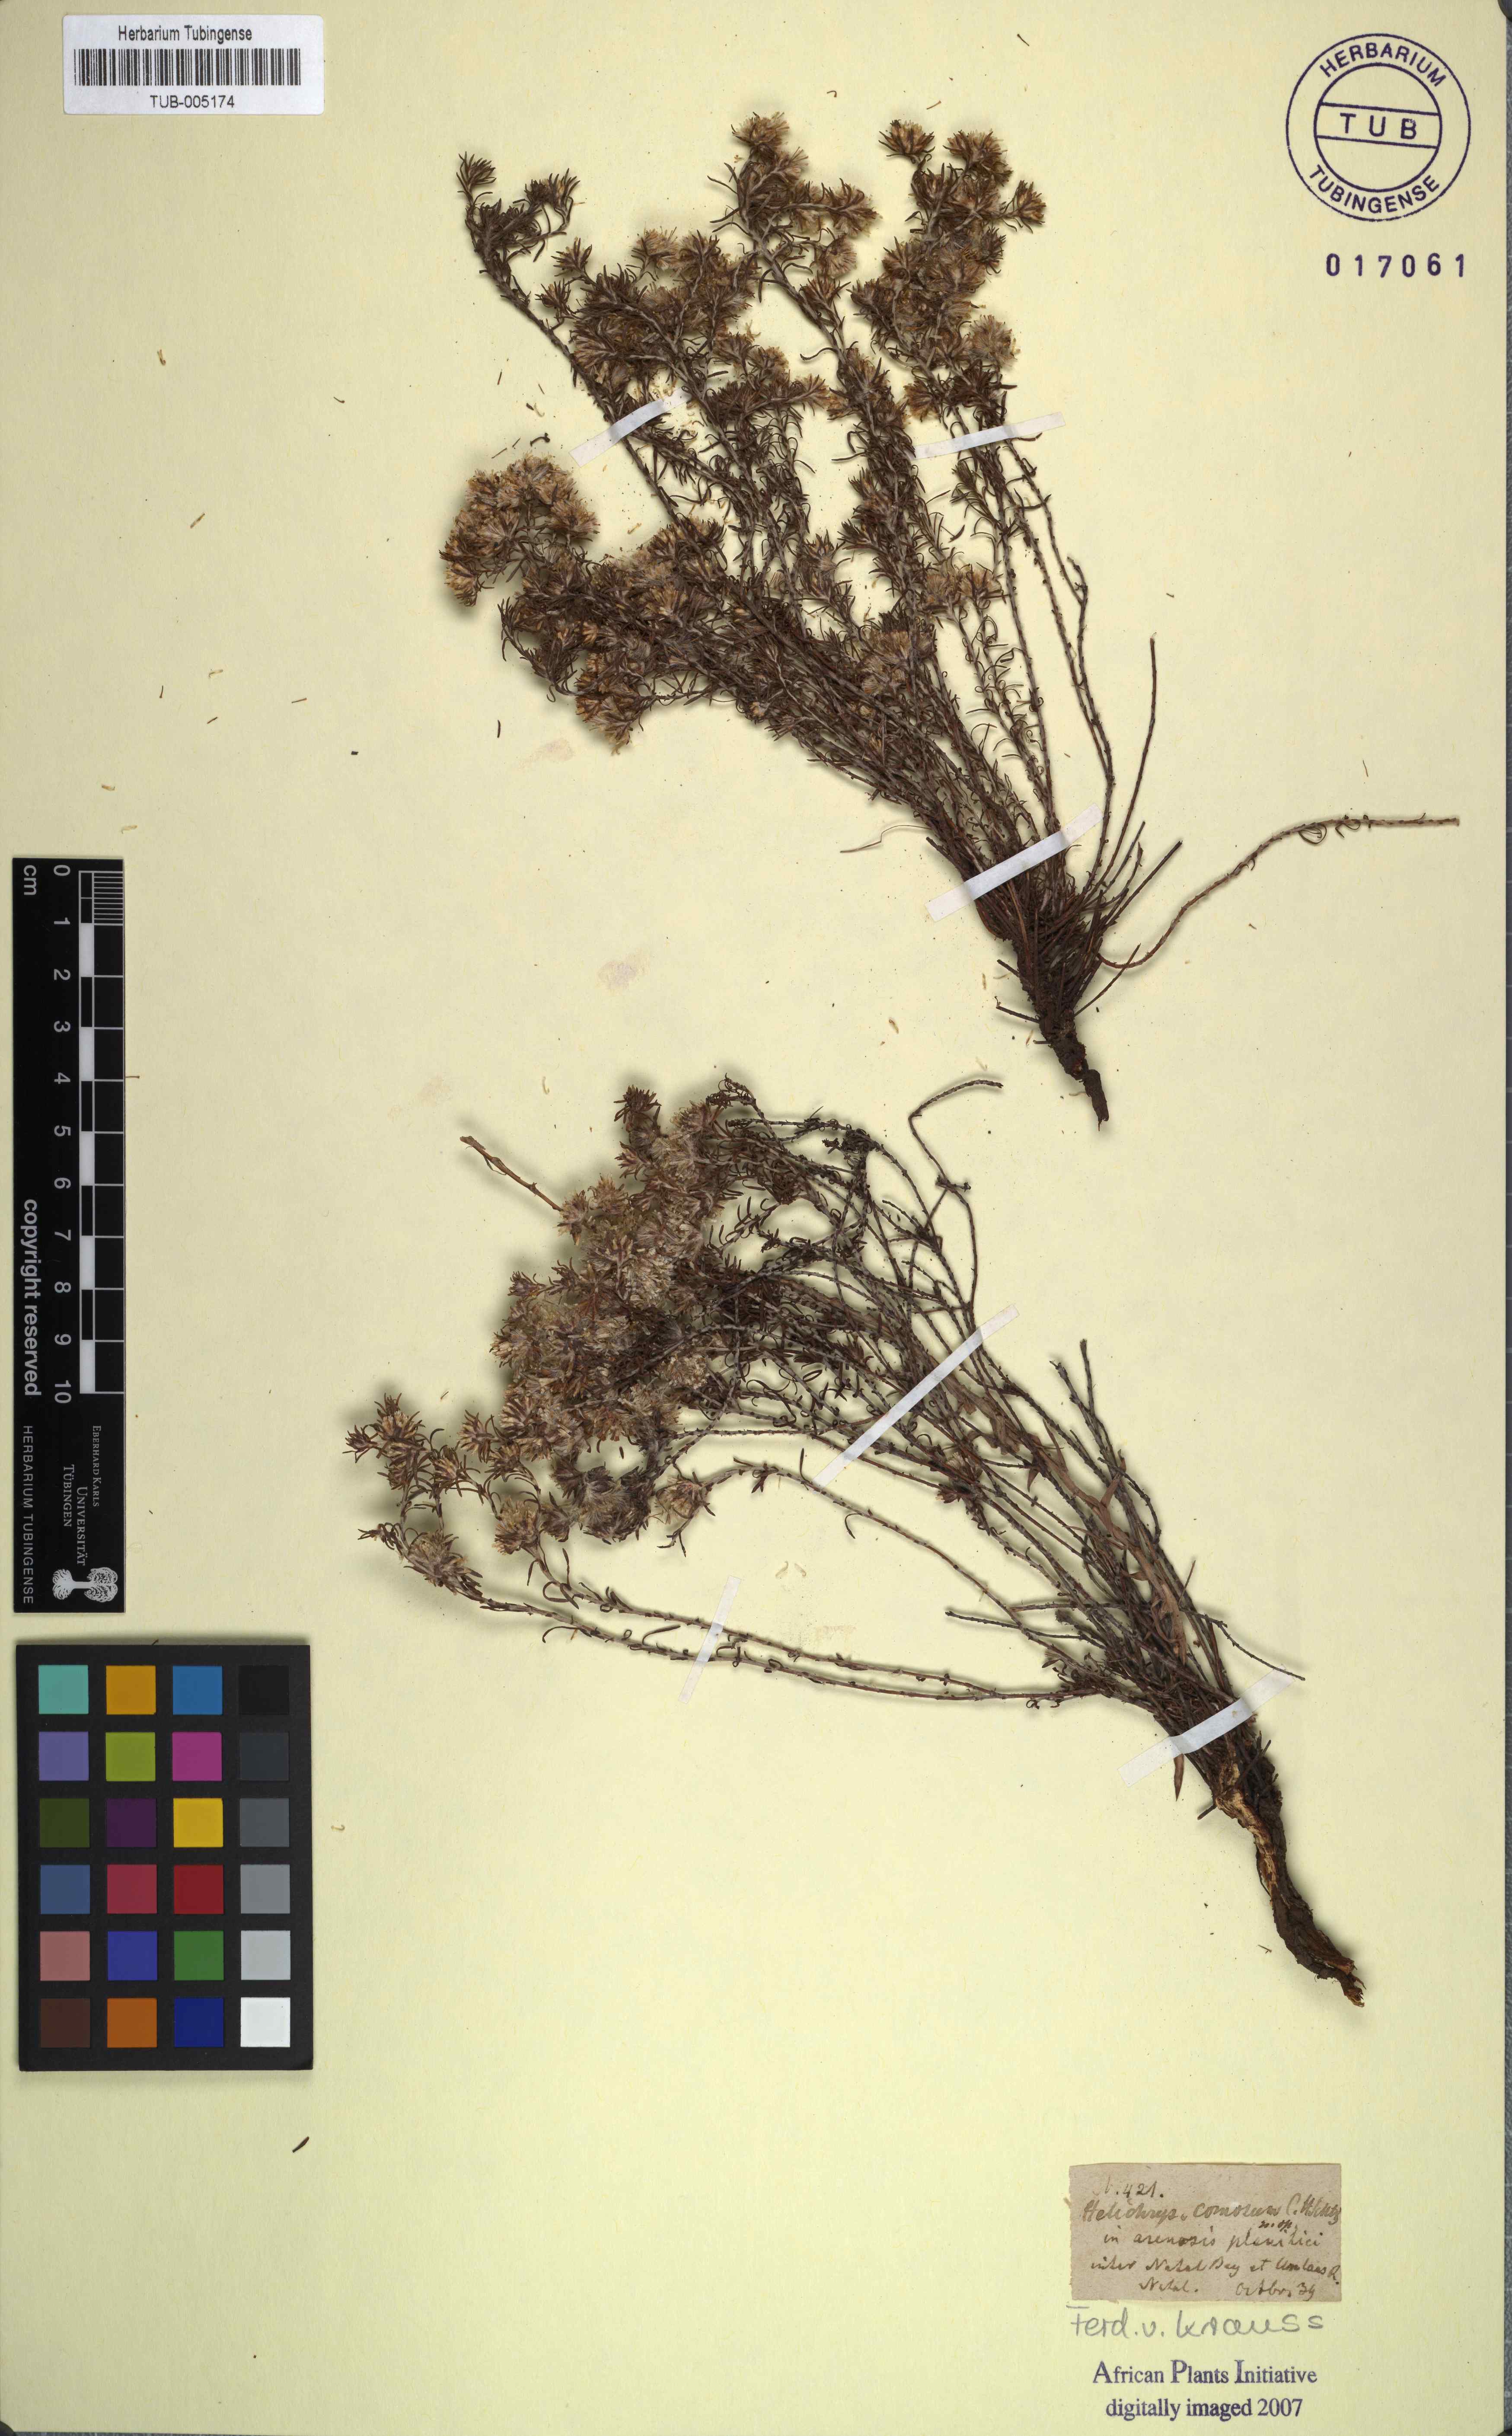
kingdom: Plantae
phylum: Tracheophyta
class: Magnoliopsida
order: Asterales
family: Asteraceae
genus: Helichrysum
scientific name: Helichrysum asperum
